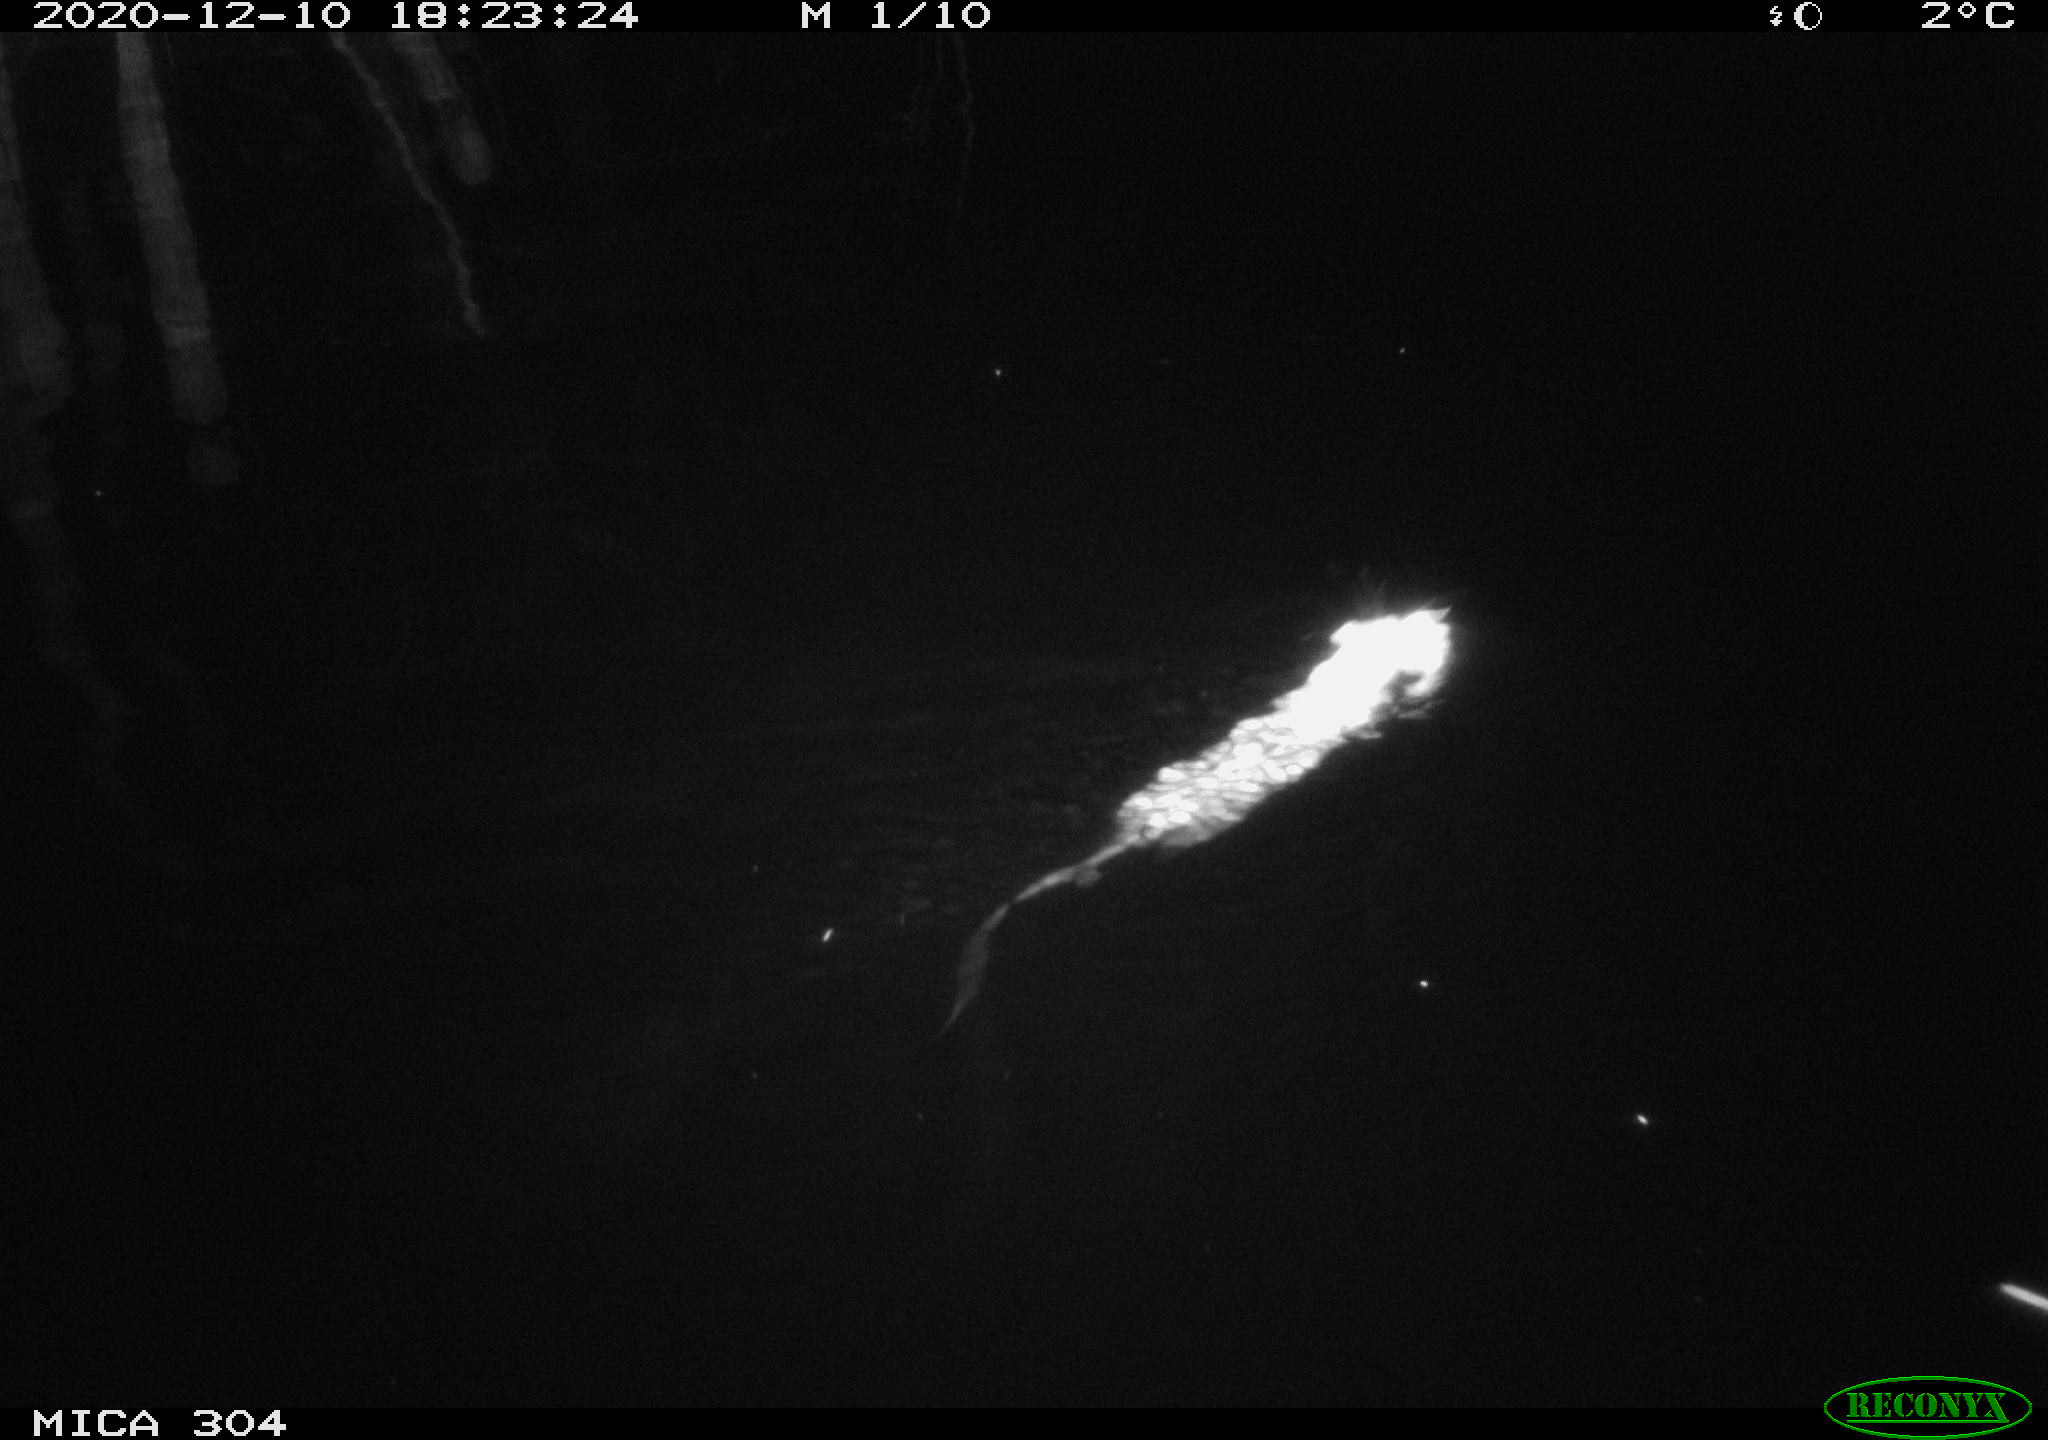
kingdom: Animalia
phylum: Chordata
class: Mammalia
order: Rodentia
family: Muridae
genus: Rattus
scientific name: Rattus norvegicus
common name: Brown rat
